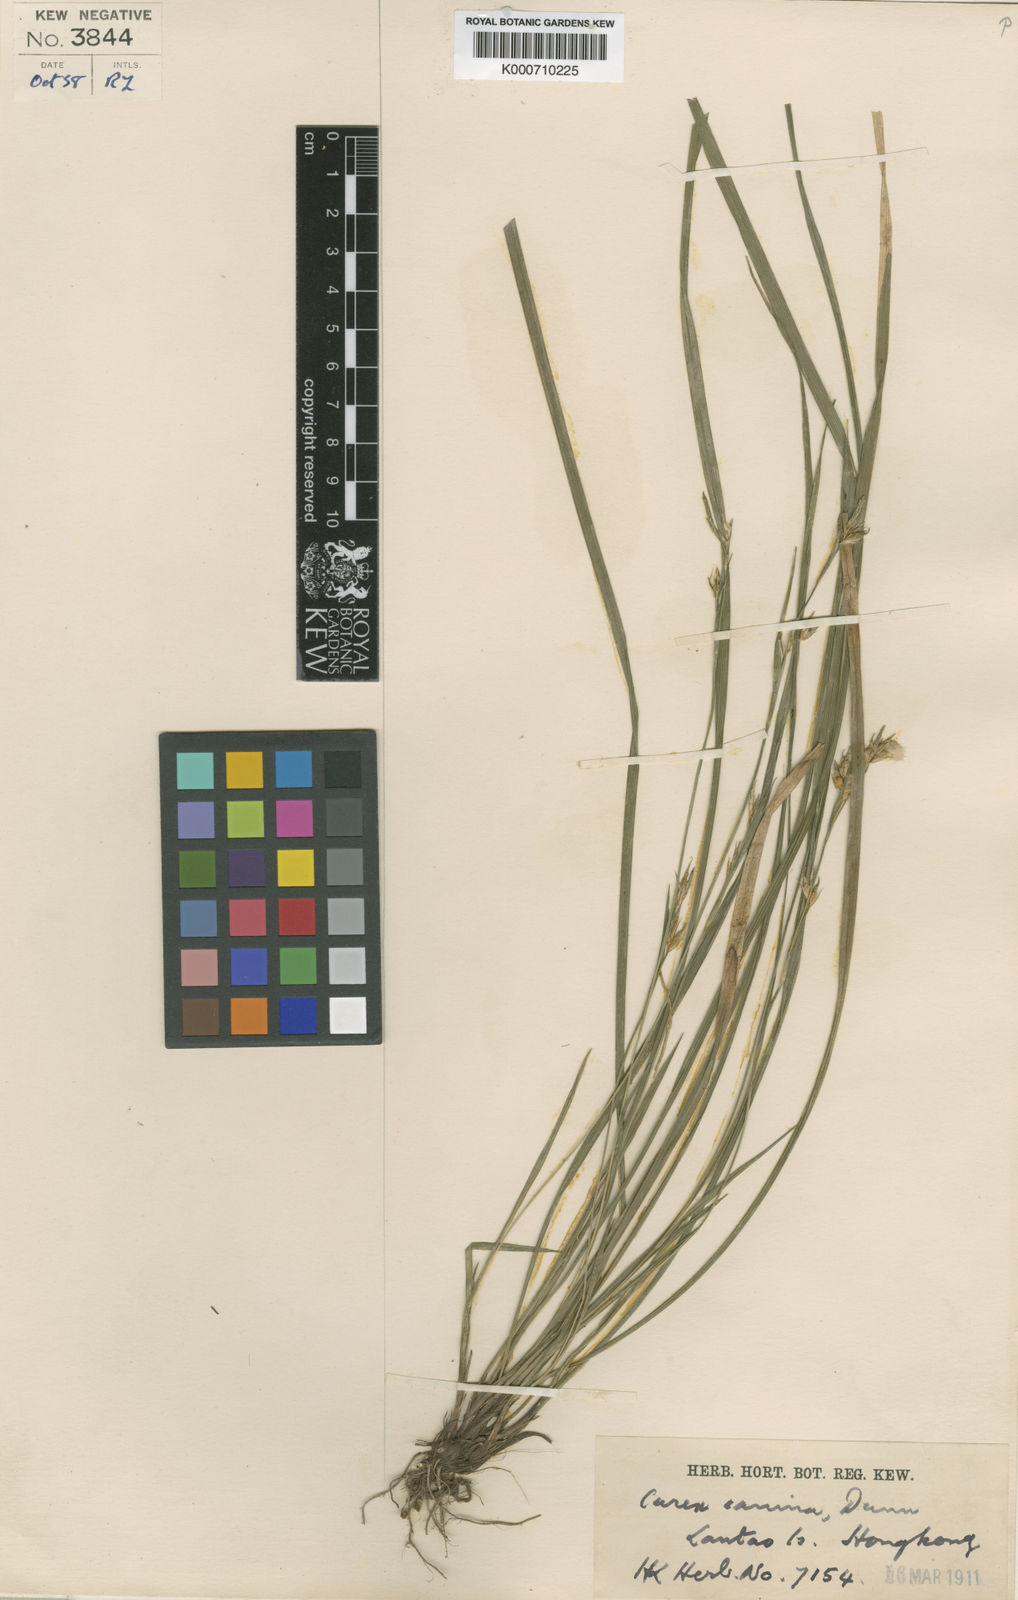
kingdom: Plantae
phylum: Tracheophyta
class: Liliopsida
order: Poales
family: Cyperaceae
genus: Carex
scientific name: Carex canina
